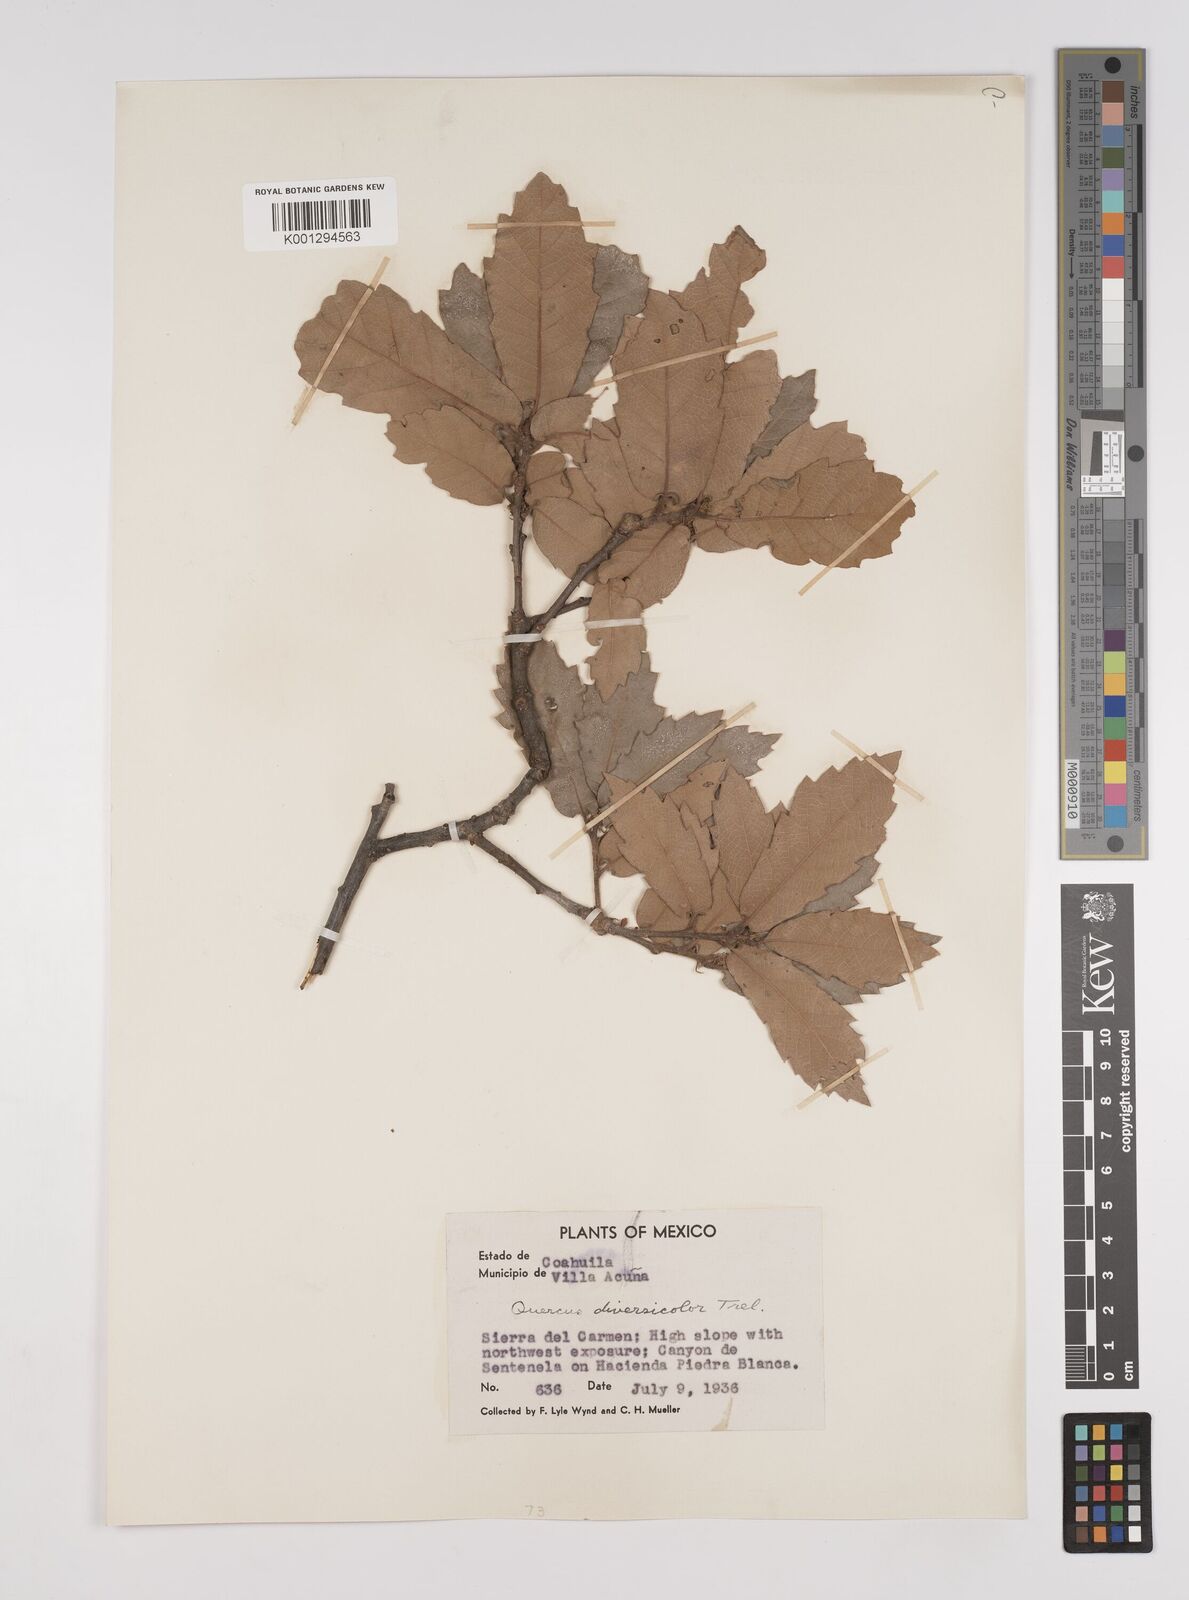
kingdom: Plantae
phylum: Tracheophyta
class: Magnoliopsida
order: Fagales
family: Fagaceae
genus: Quercus
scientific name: Quercus rugosa
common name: Netleaf oak
